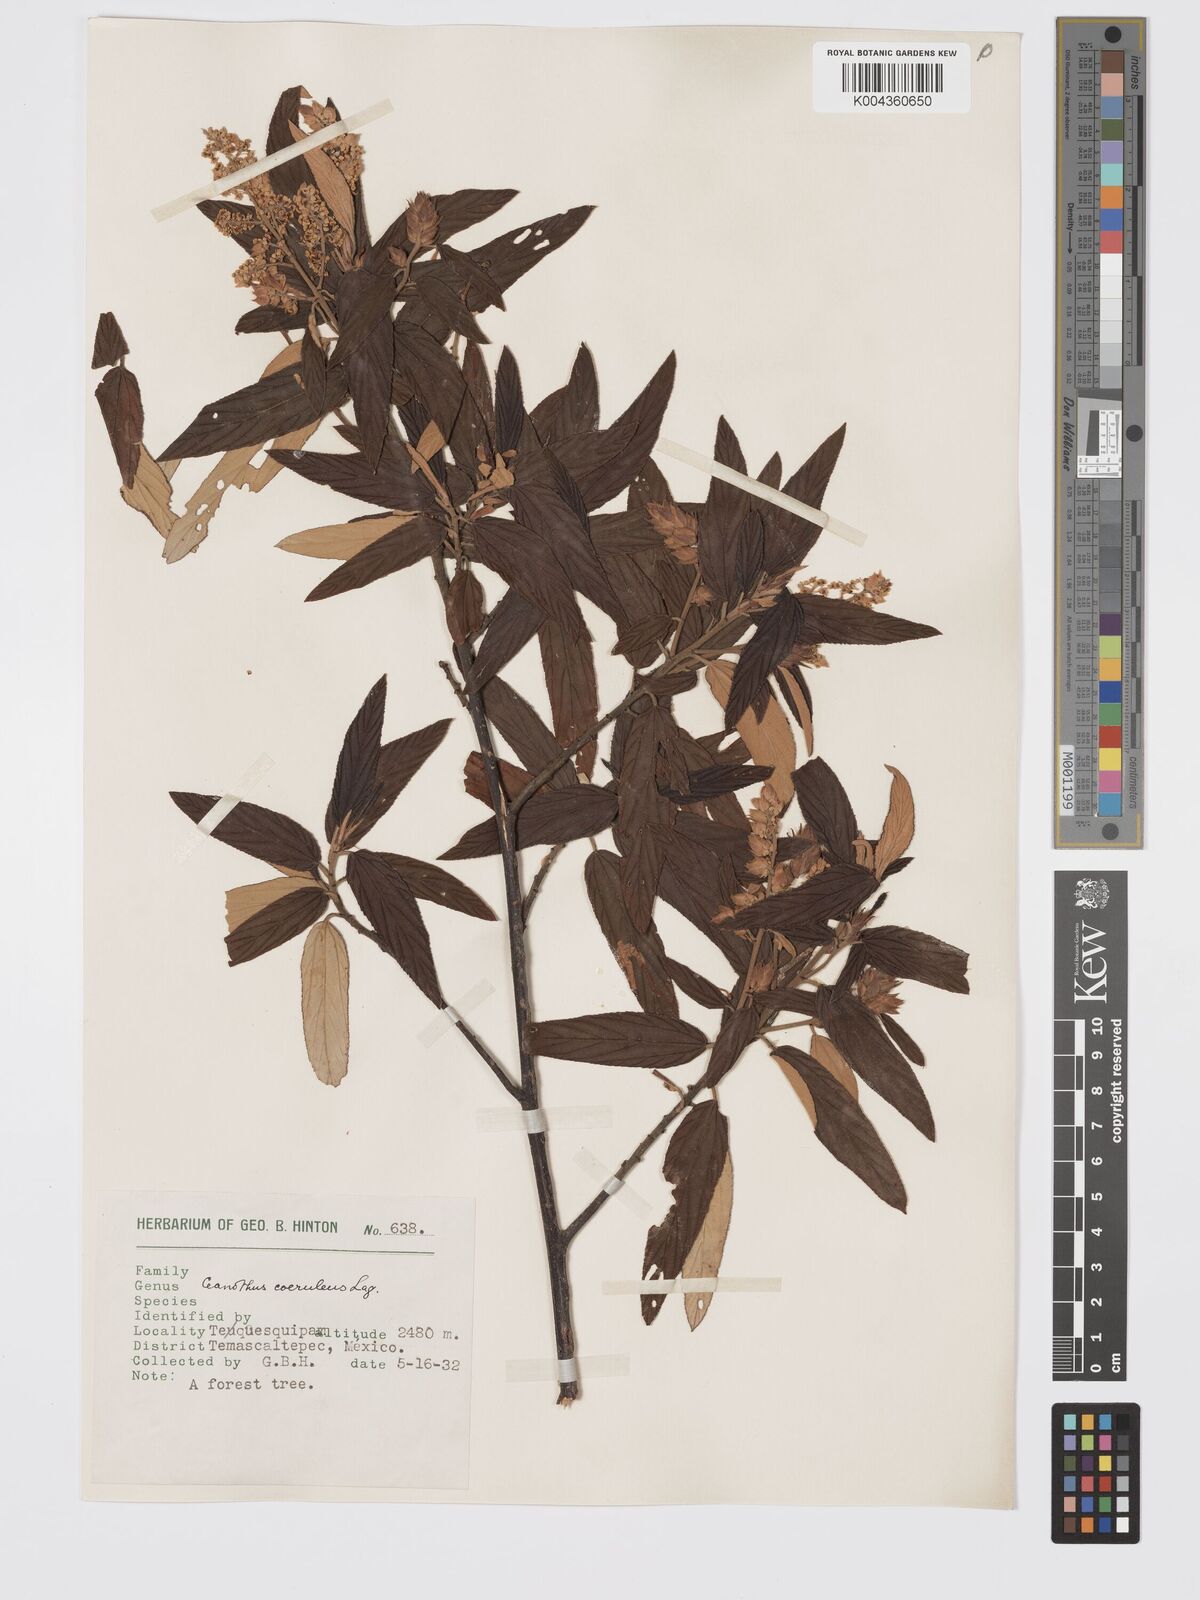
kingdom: Plantae
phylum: Tracheophyta
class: Magnoliopsida
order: Rosales
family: Rhamnaceae
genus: Ceanothus
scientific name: Ceanothus caeruleus
